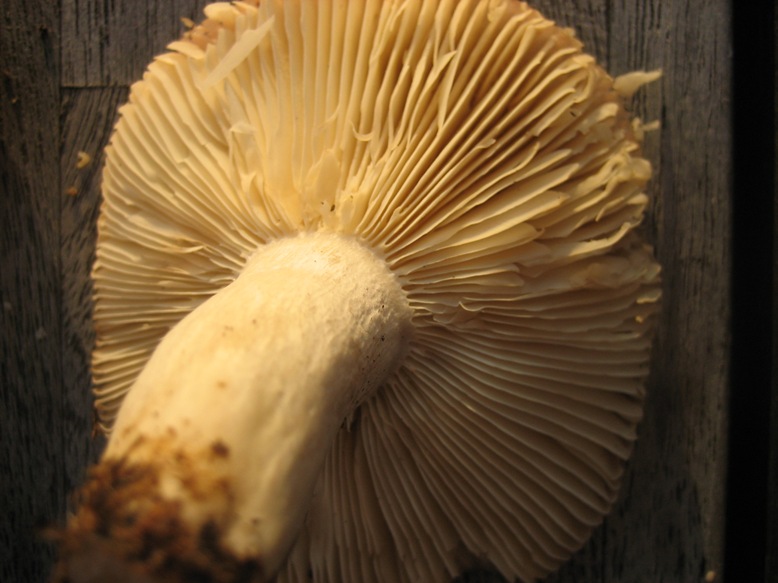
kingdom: Fungi
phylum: Basidiomycota
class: Agaricomycetes
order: Russulales
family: Russulaceae
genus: Russula
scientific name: Russula depallens
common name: falmende skørhat
